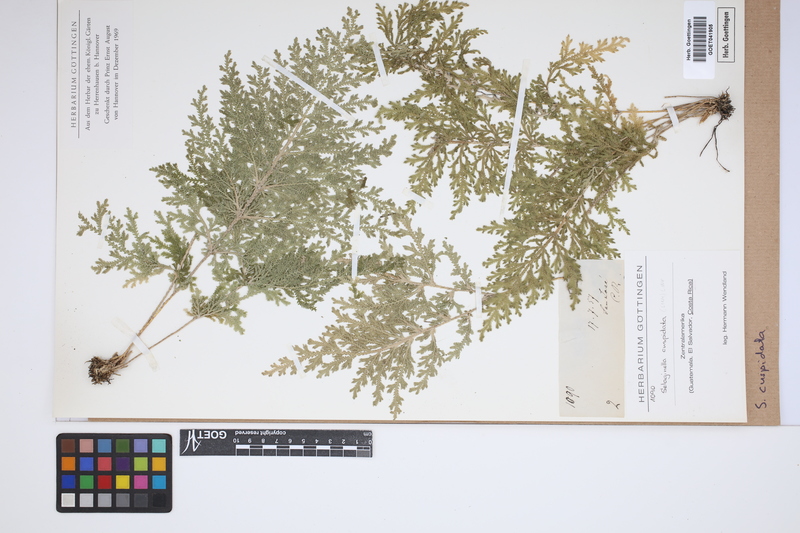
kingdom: Plantae
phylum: Tracheophyta
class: Lycopodiopsida
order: Selaginellales
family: Selaginellaceae
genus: Selaginella
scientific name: Selaginella pallescens
